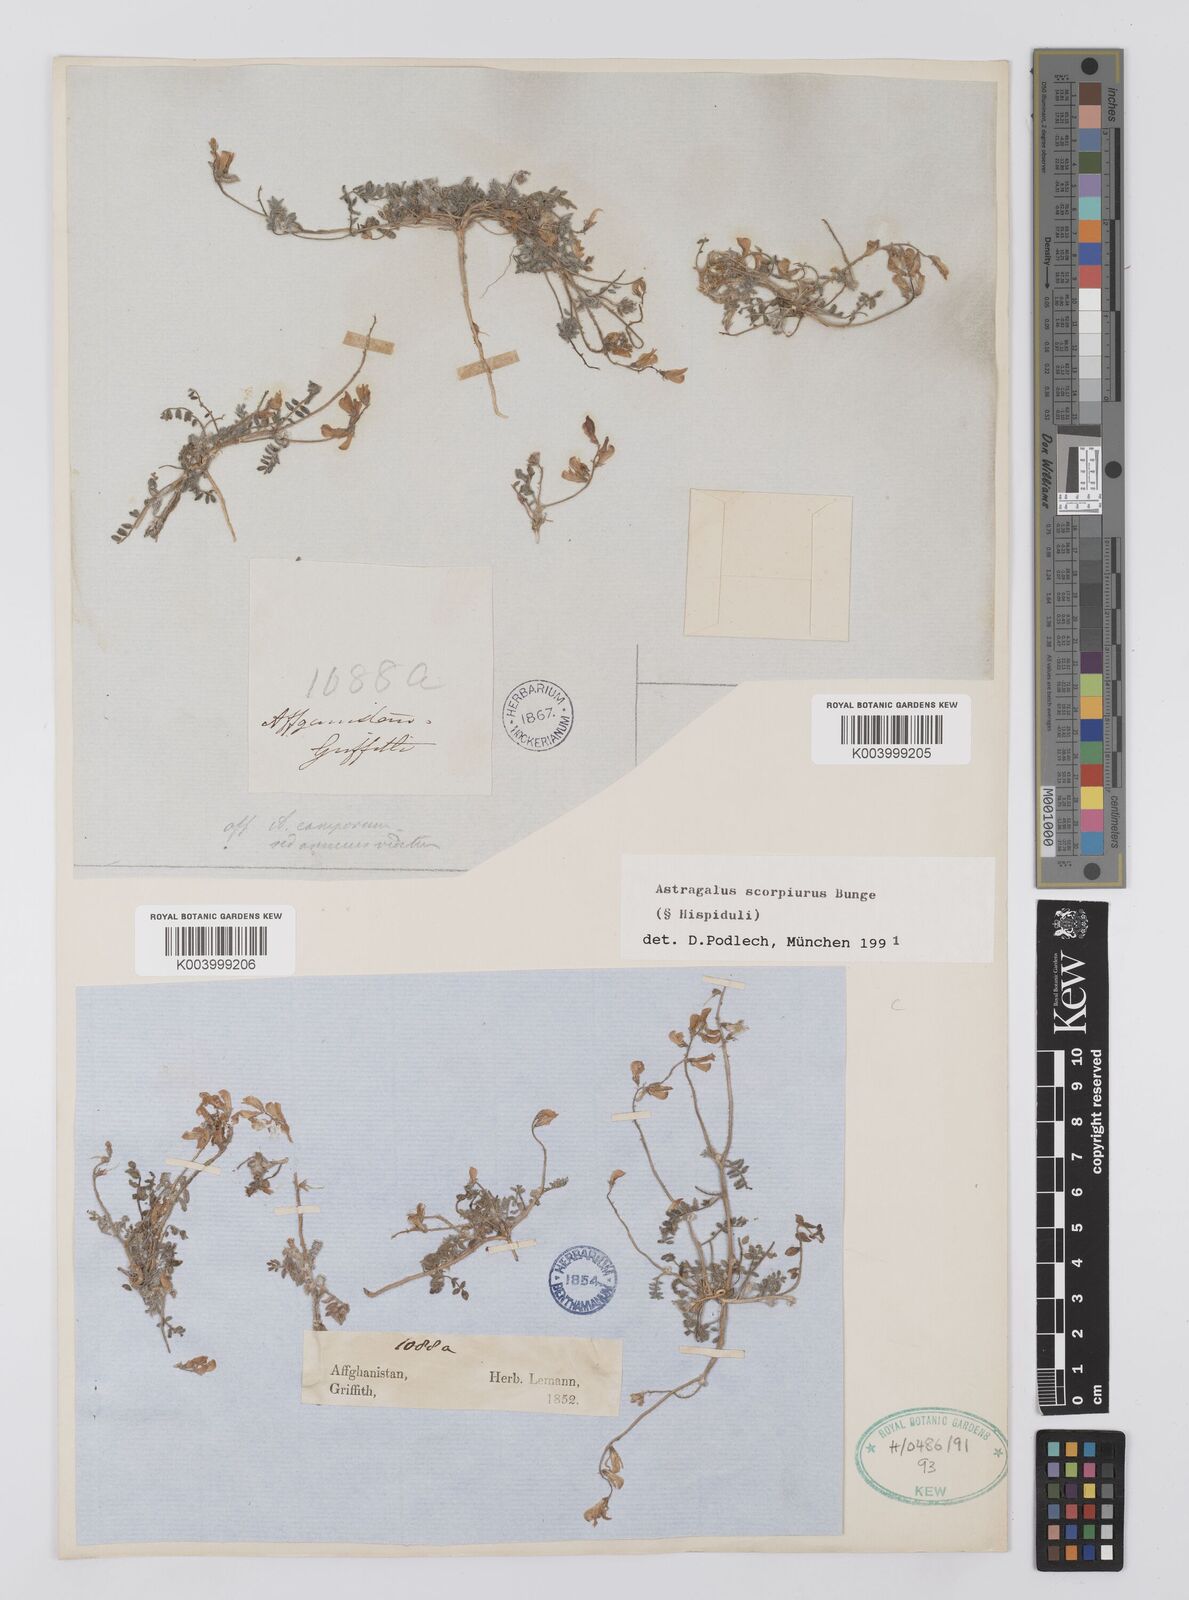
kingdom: Plantae
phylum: Tracheophyta
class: Magnoliopsida
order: Fabales
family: Fabaceae
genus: Astragalus
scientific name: Astragalus scorpiurus
